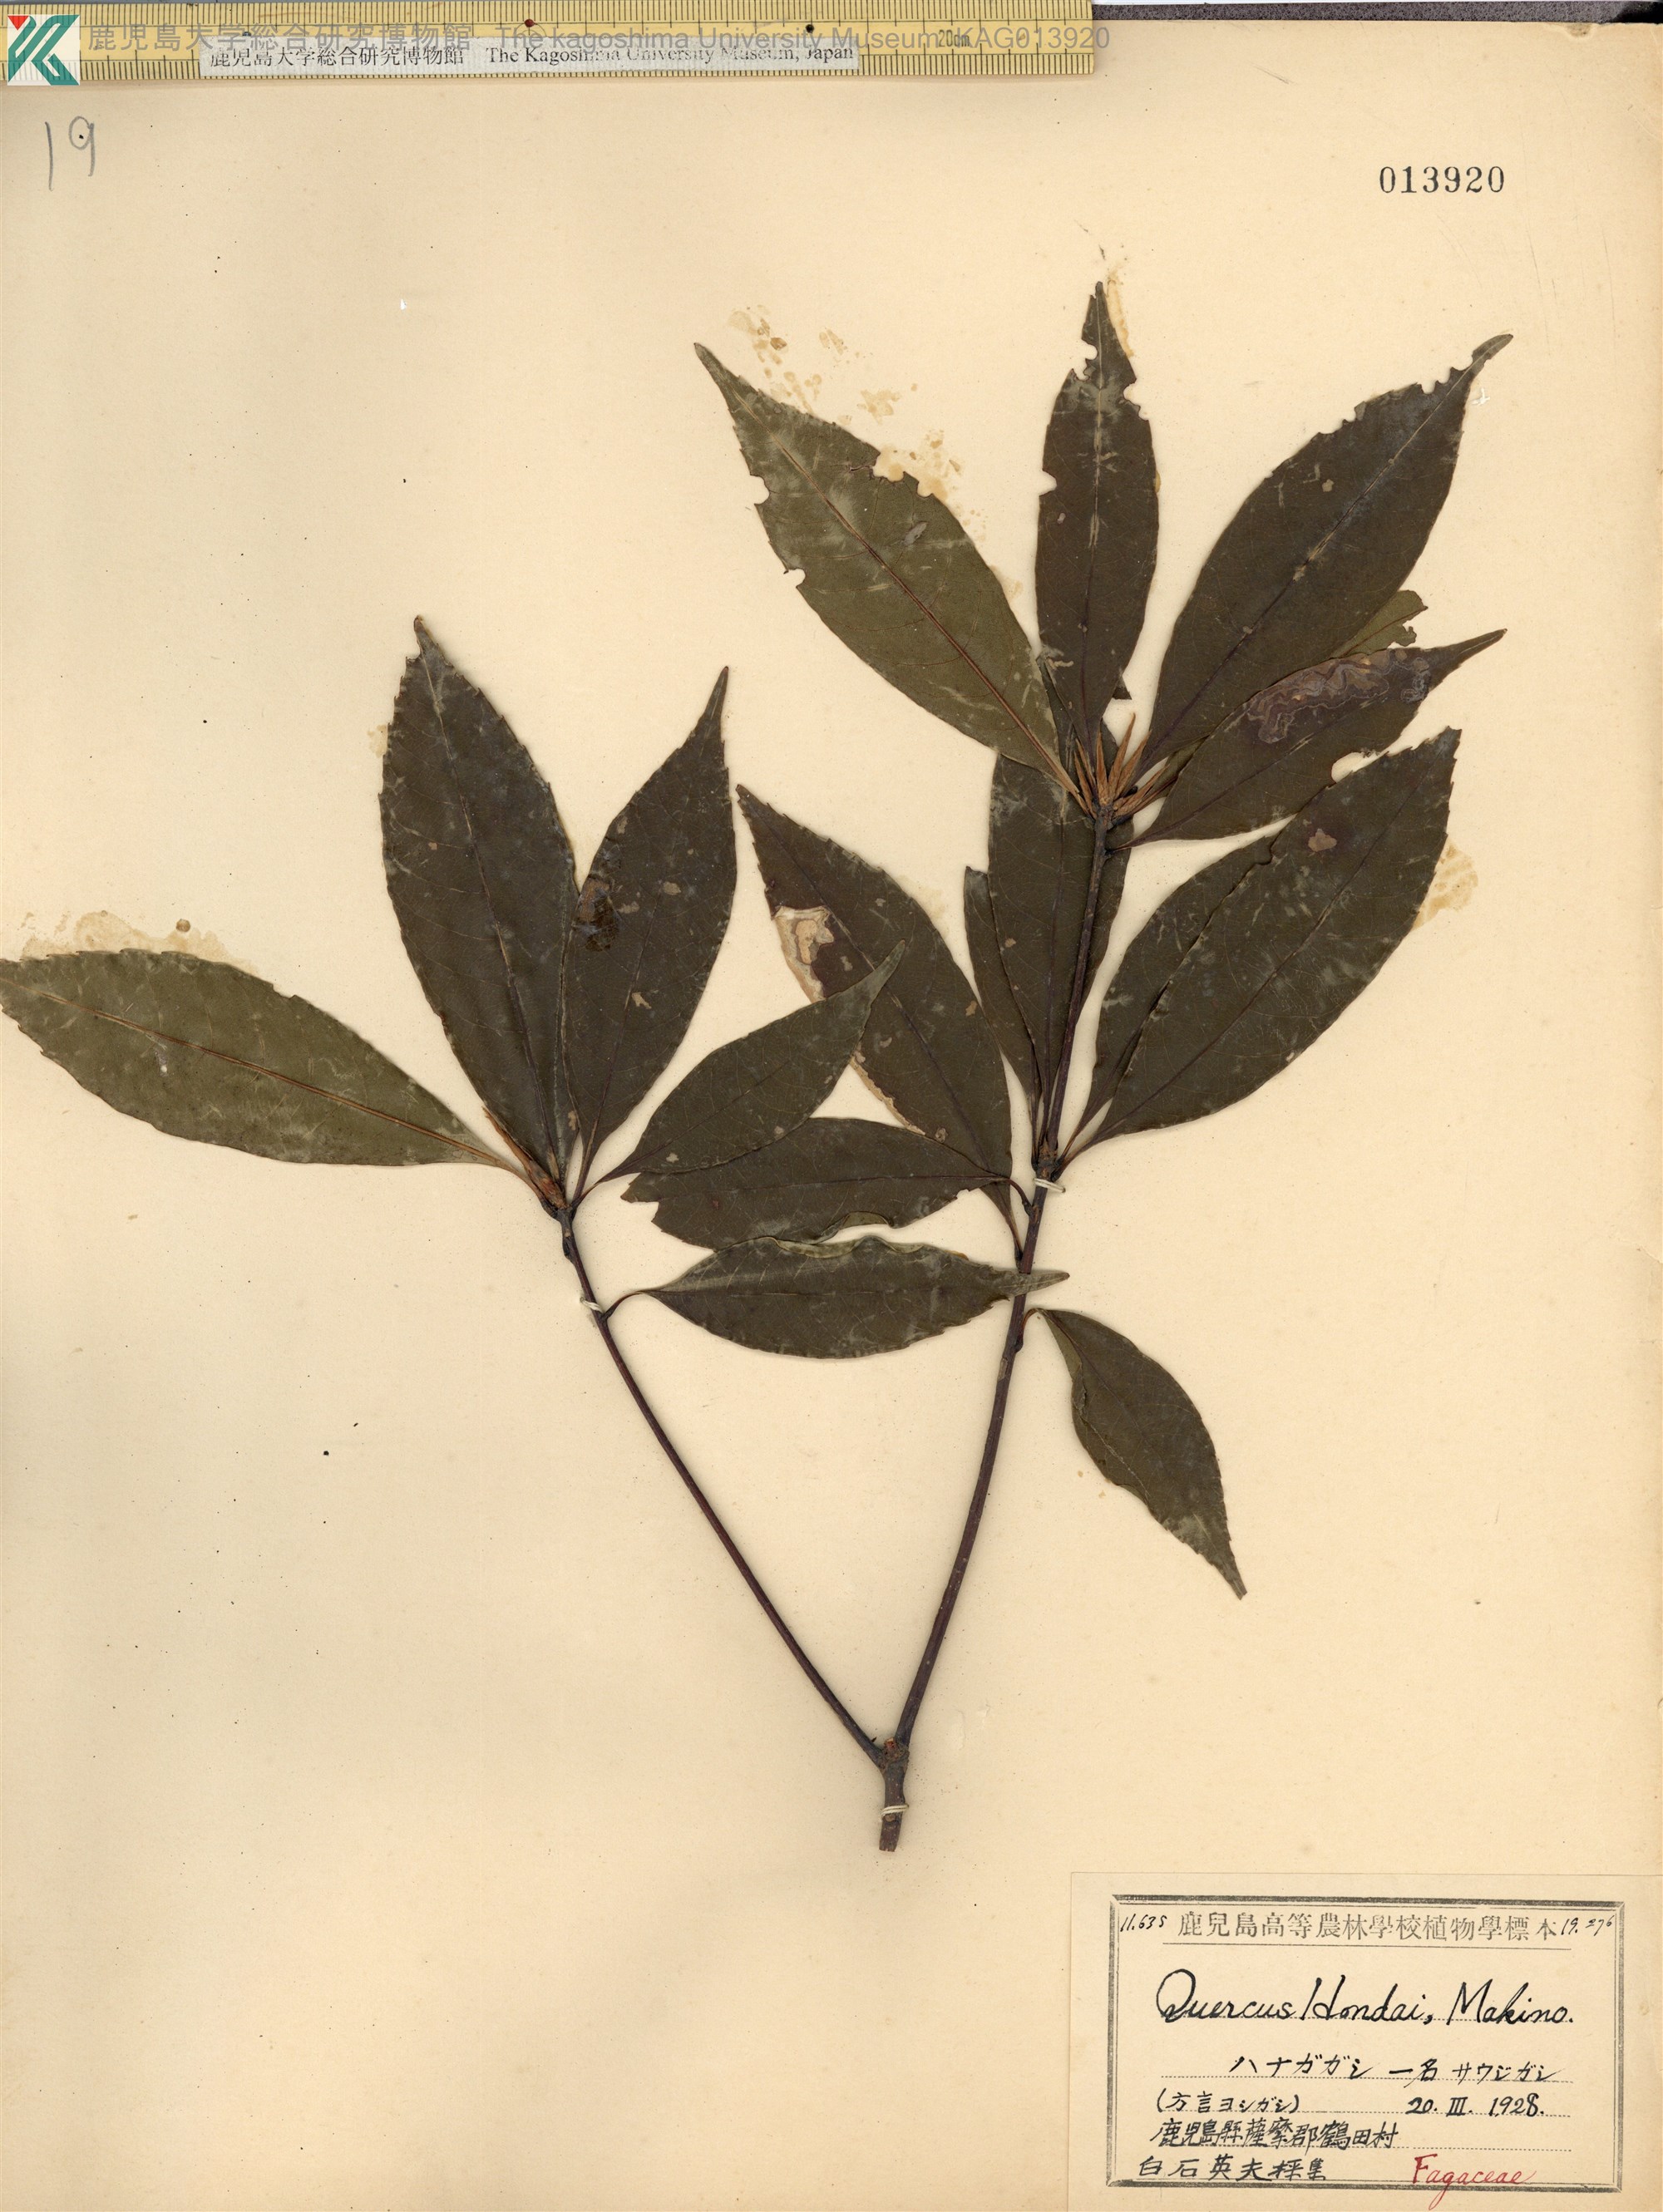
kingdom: Plantae
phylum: Tracheophyta
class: Magnoliopsida
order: Fagales
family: Fagaceae
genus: Quercus
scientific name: Quercus hondae
